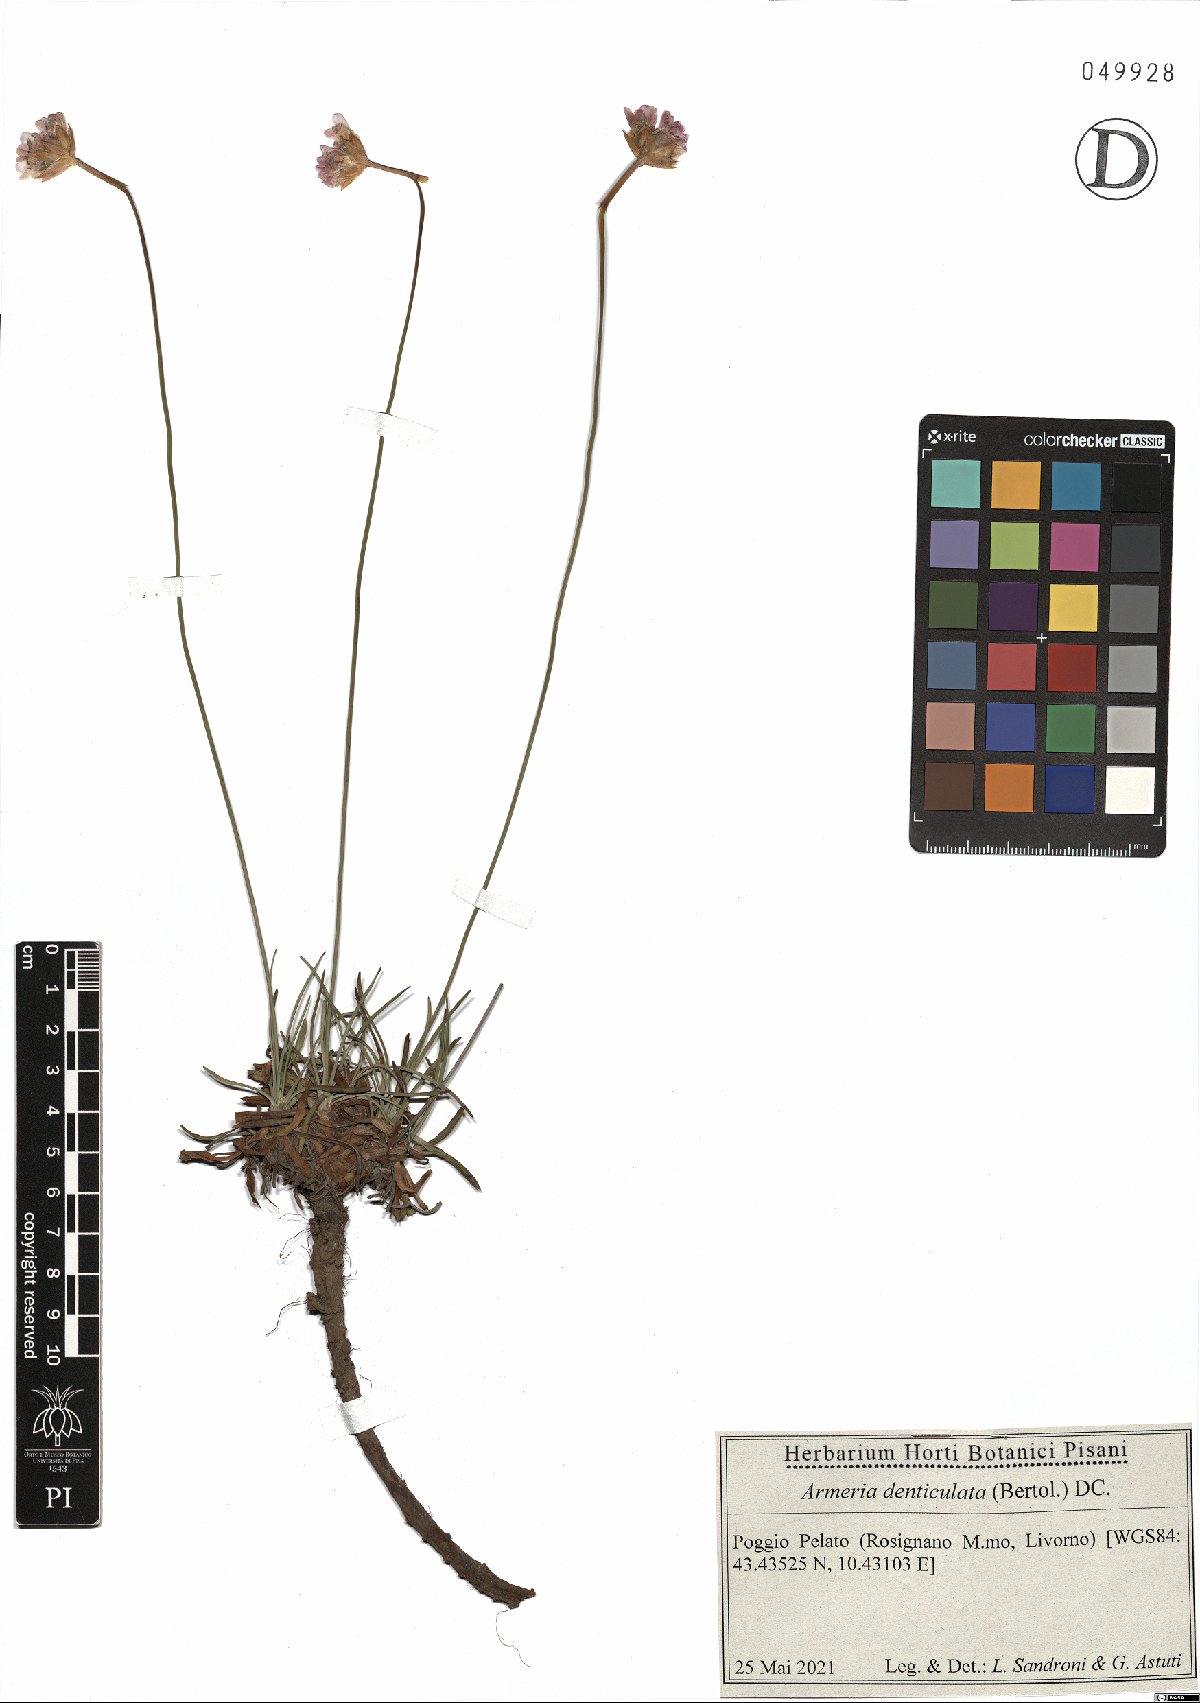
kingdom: Plantae
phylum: Tracheophyta
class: Magnoliopsida
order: Caryophyllales
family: Plumbaginaceae
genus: Armeria
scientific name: Armeria denticulata
